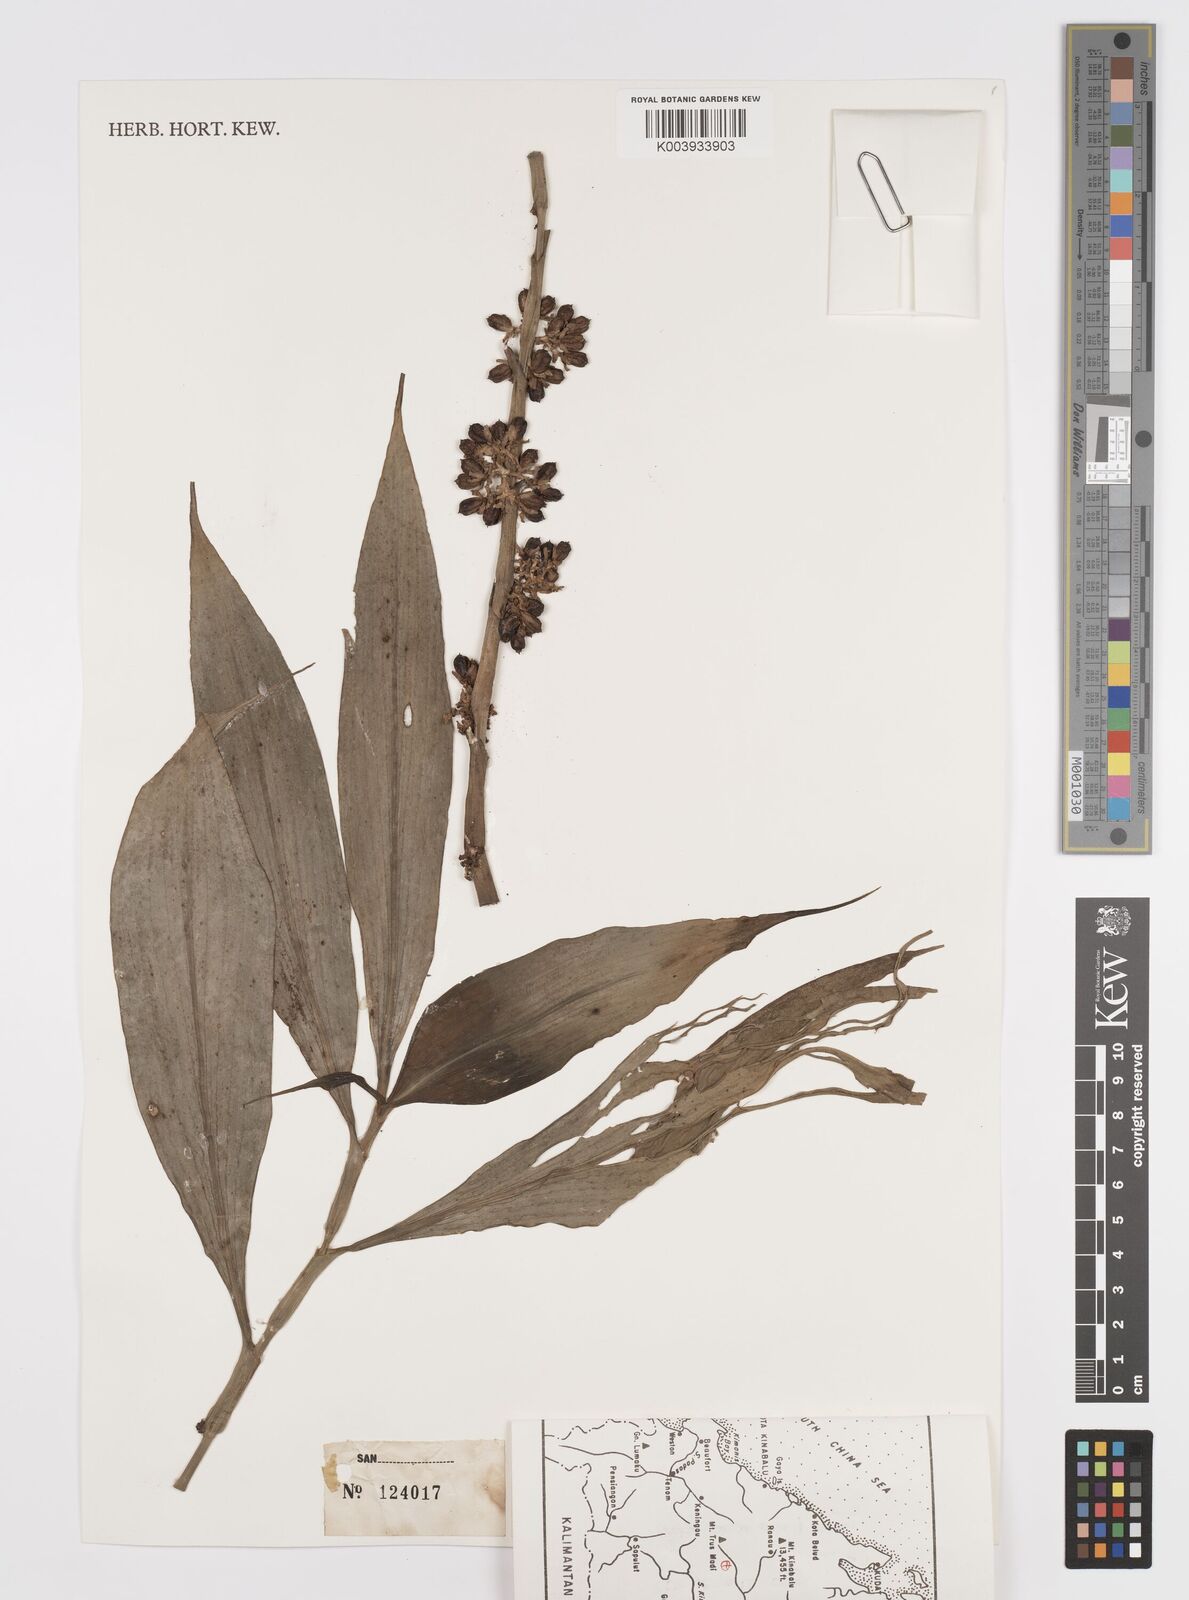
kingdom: Plantae
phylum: Tracheophyta
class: Liliopsida
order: Commelinales
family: Commelinaceae
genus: Amischotolype
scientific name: Amischotolype glabrata
